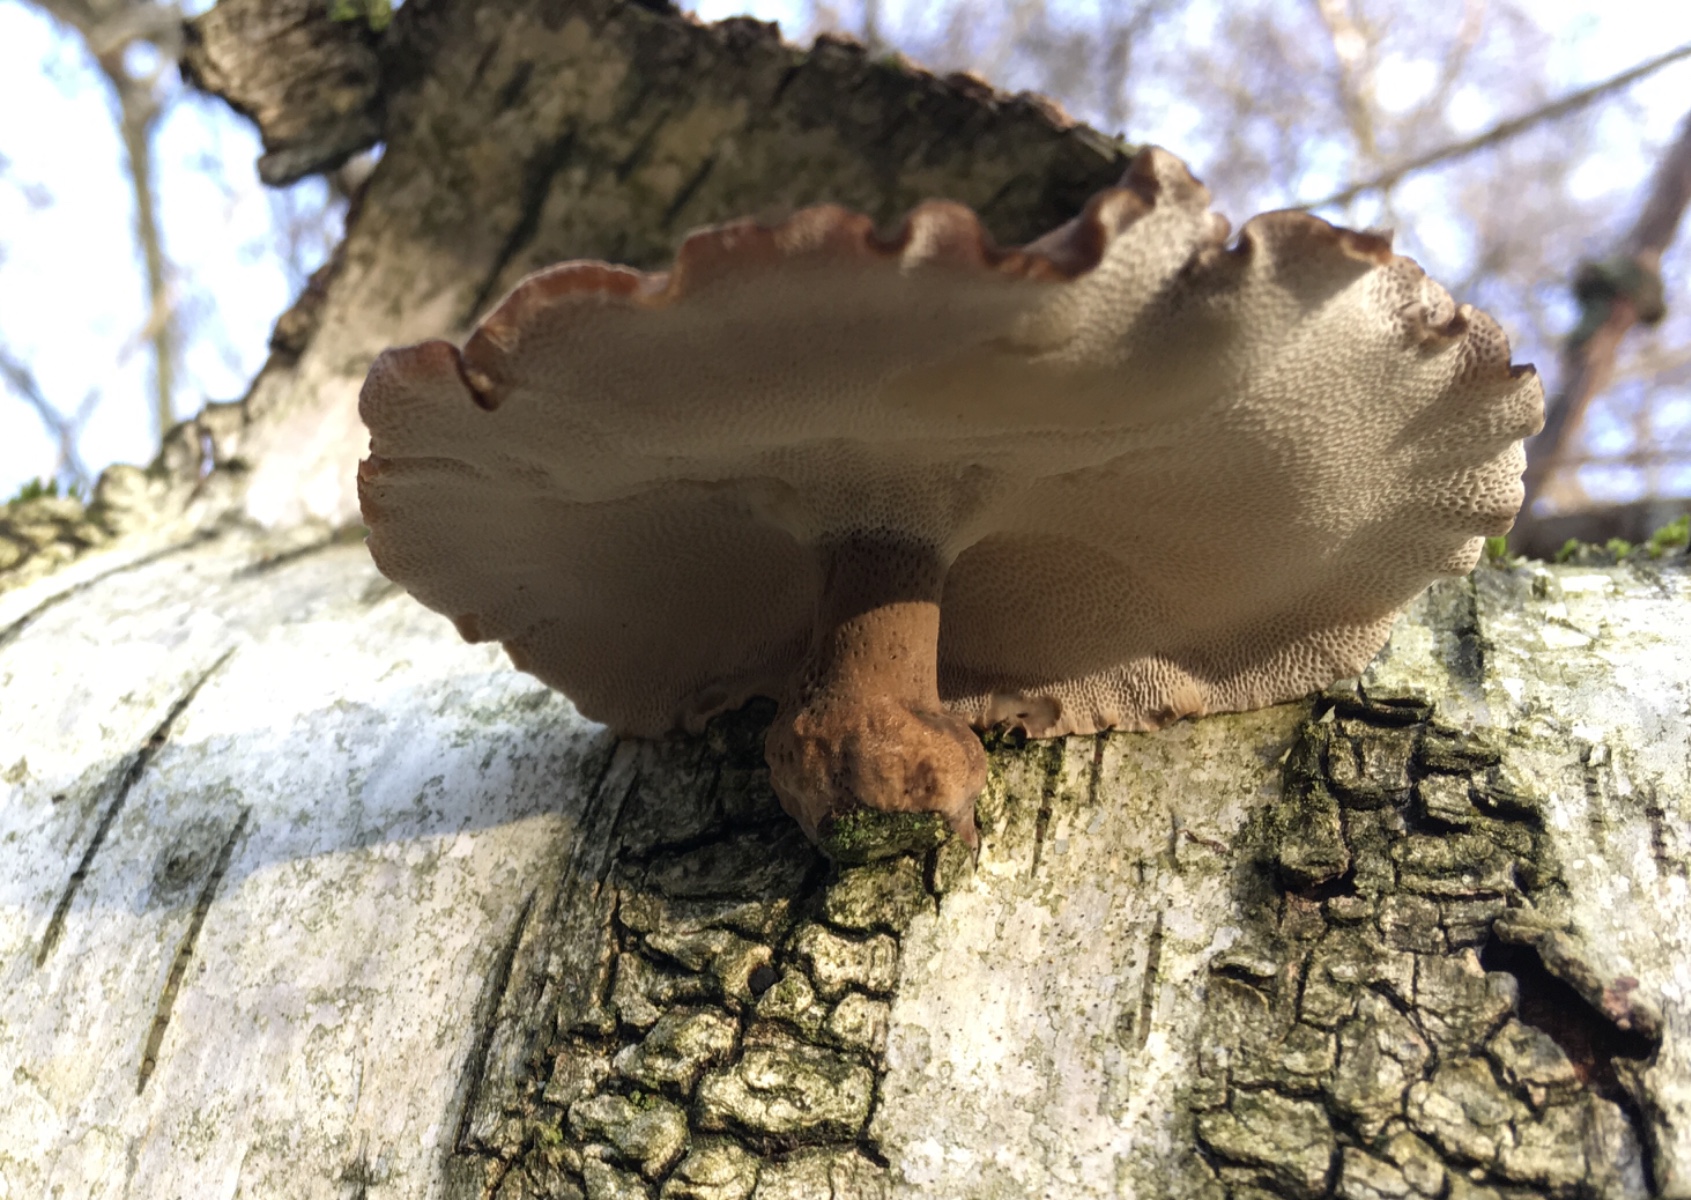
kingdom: Fungi
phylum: Basidiomycota
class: Agaricomycetes
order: Polyporales
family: Polyporaceae
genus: Lentinus
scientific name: Lentinus brumalis
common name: vinter-stilkporesvamp
